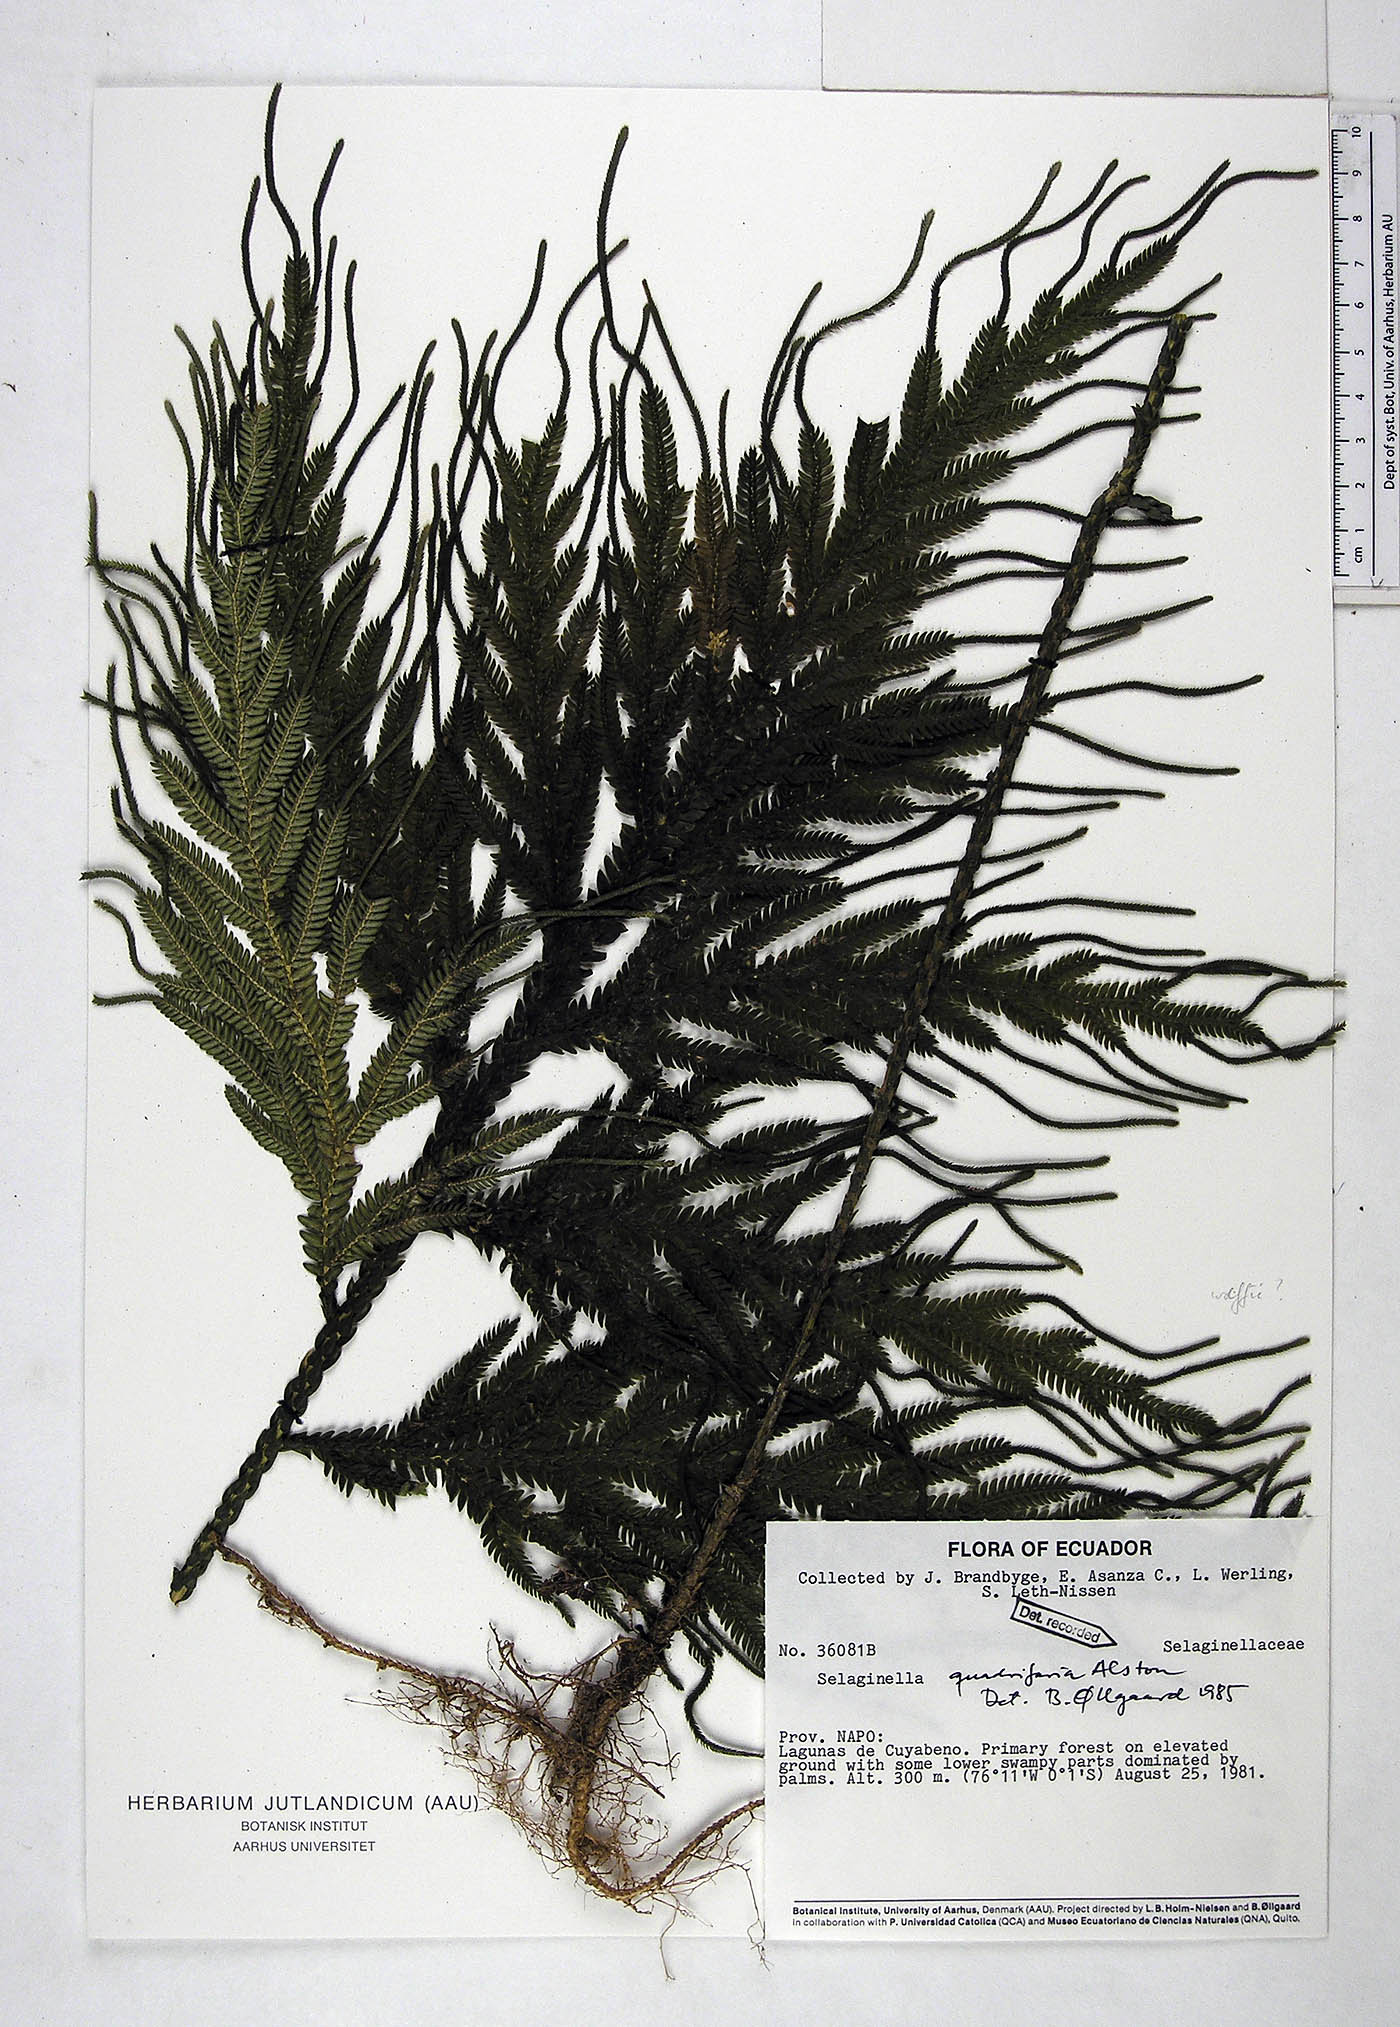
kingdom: Plantae
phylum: Tracheophyta
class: Lycopodiopsida
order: Selaginellales
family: Selaginellaceae
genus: Selaginella
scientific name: Selaginella quadrifaria
